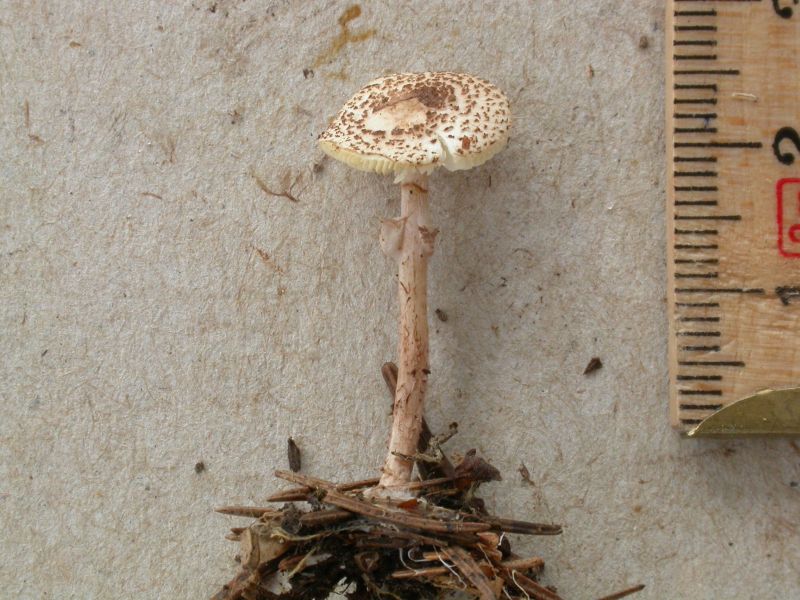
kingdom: Fungi
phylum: Basidiomycota
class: Agaricomycetes
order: Agaricales
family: Agaricaceae
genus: Lepiota
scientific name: Lepiota felina
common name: sortskællet parasolhat
